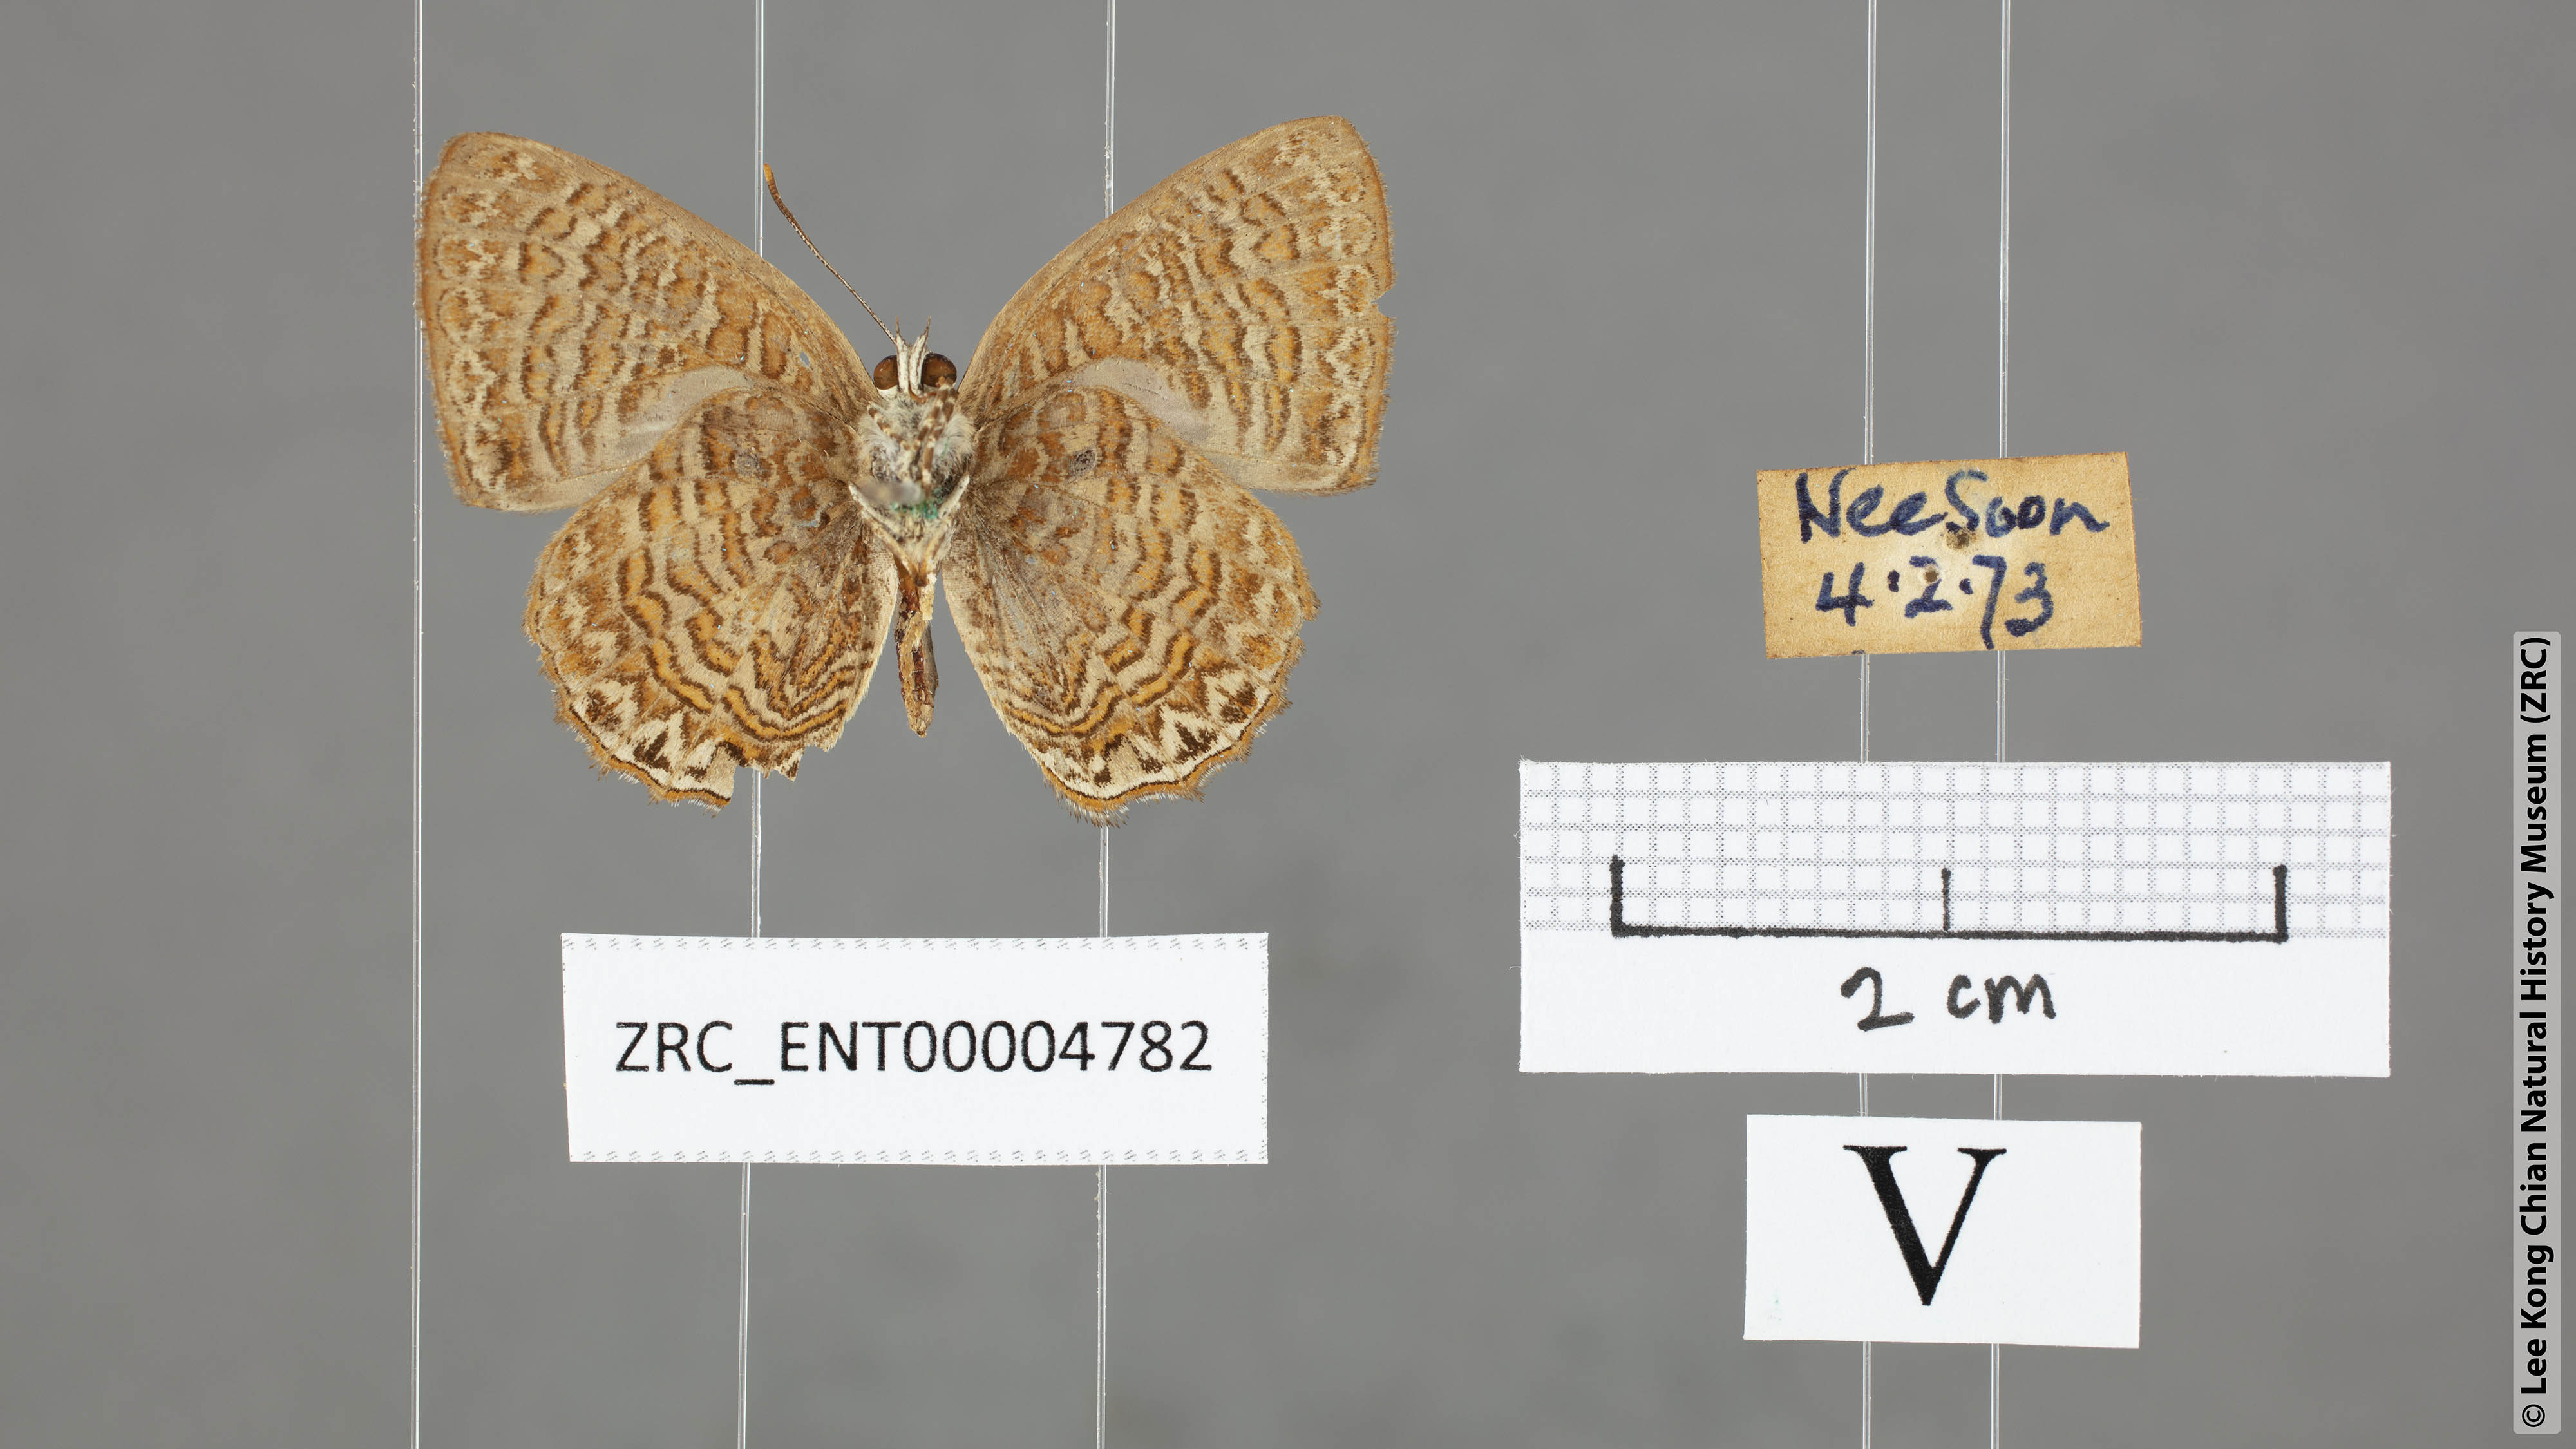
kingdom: Animalia
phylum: Arthropoda
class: Insecta
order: Lepidoptera
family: Lycaenidae
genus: Poritia
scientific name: Poritia sumatrae
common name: Sumatran gem
